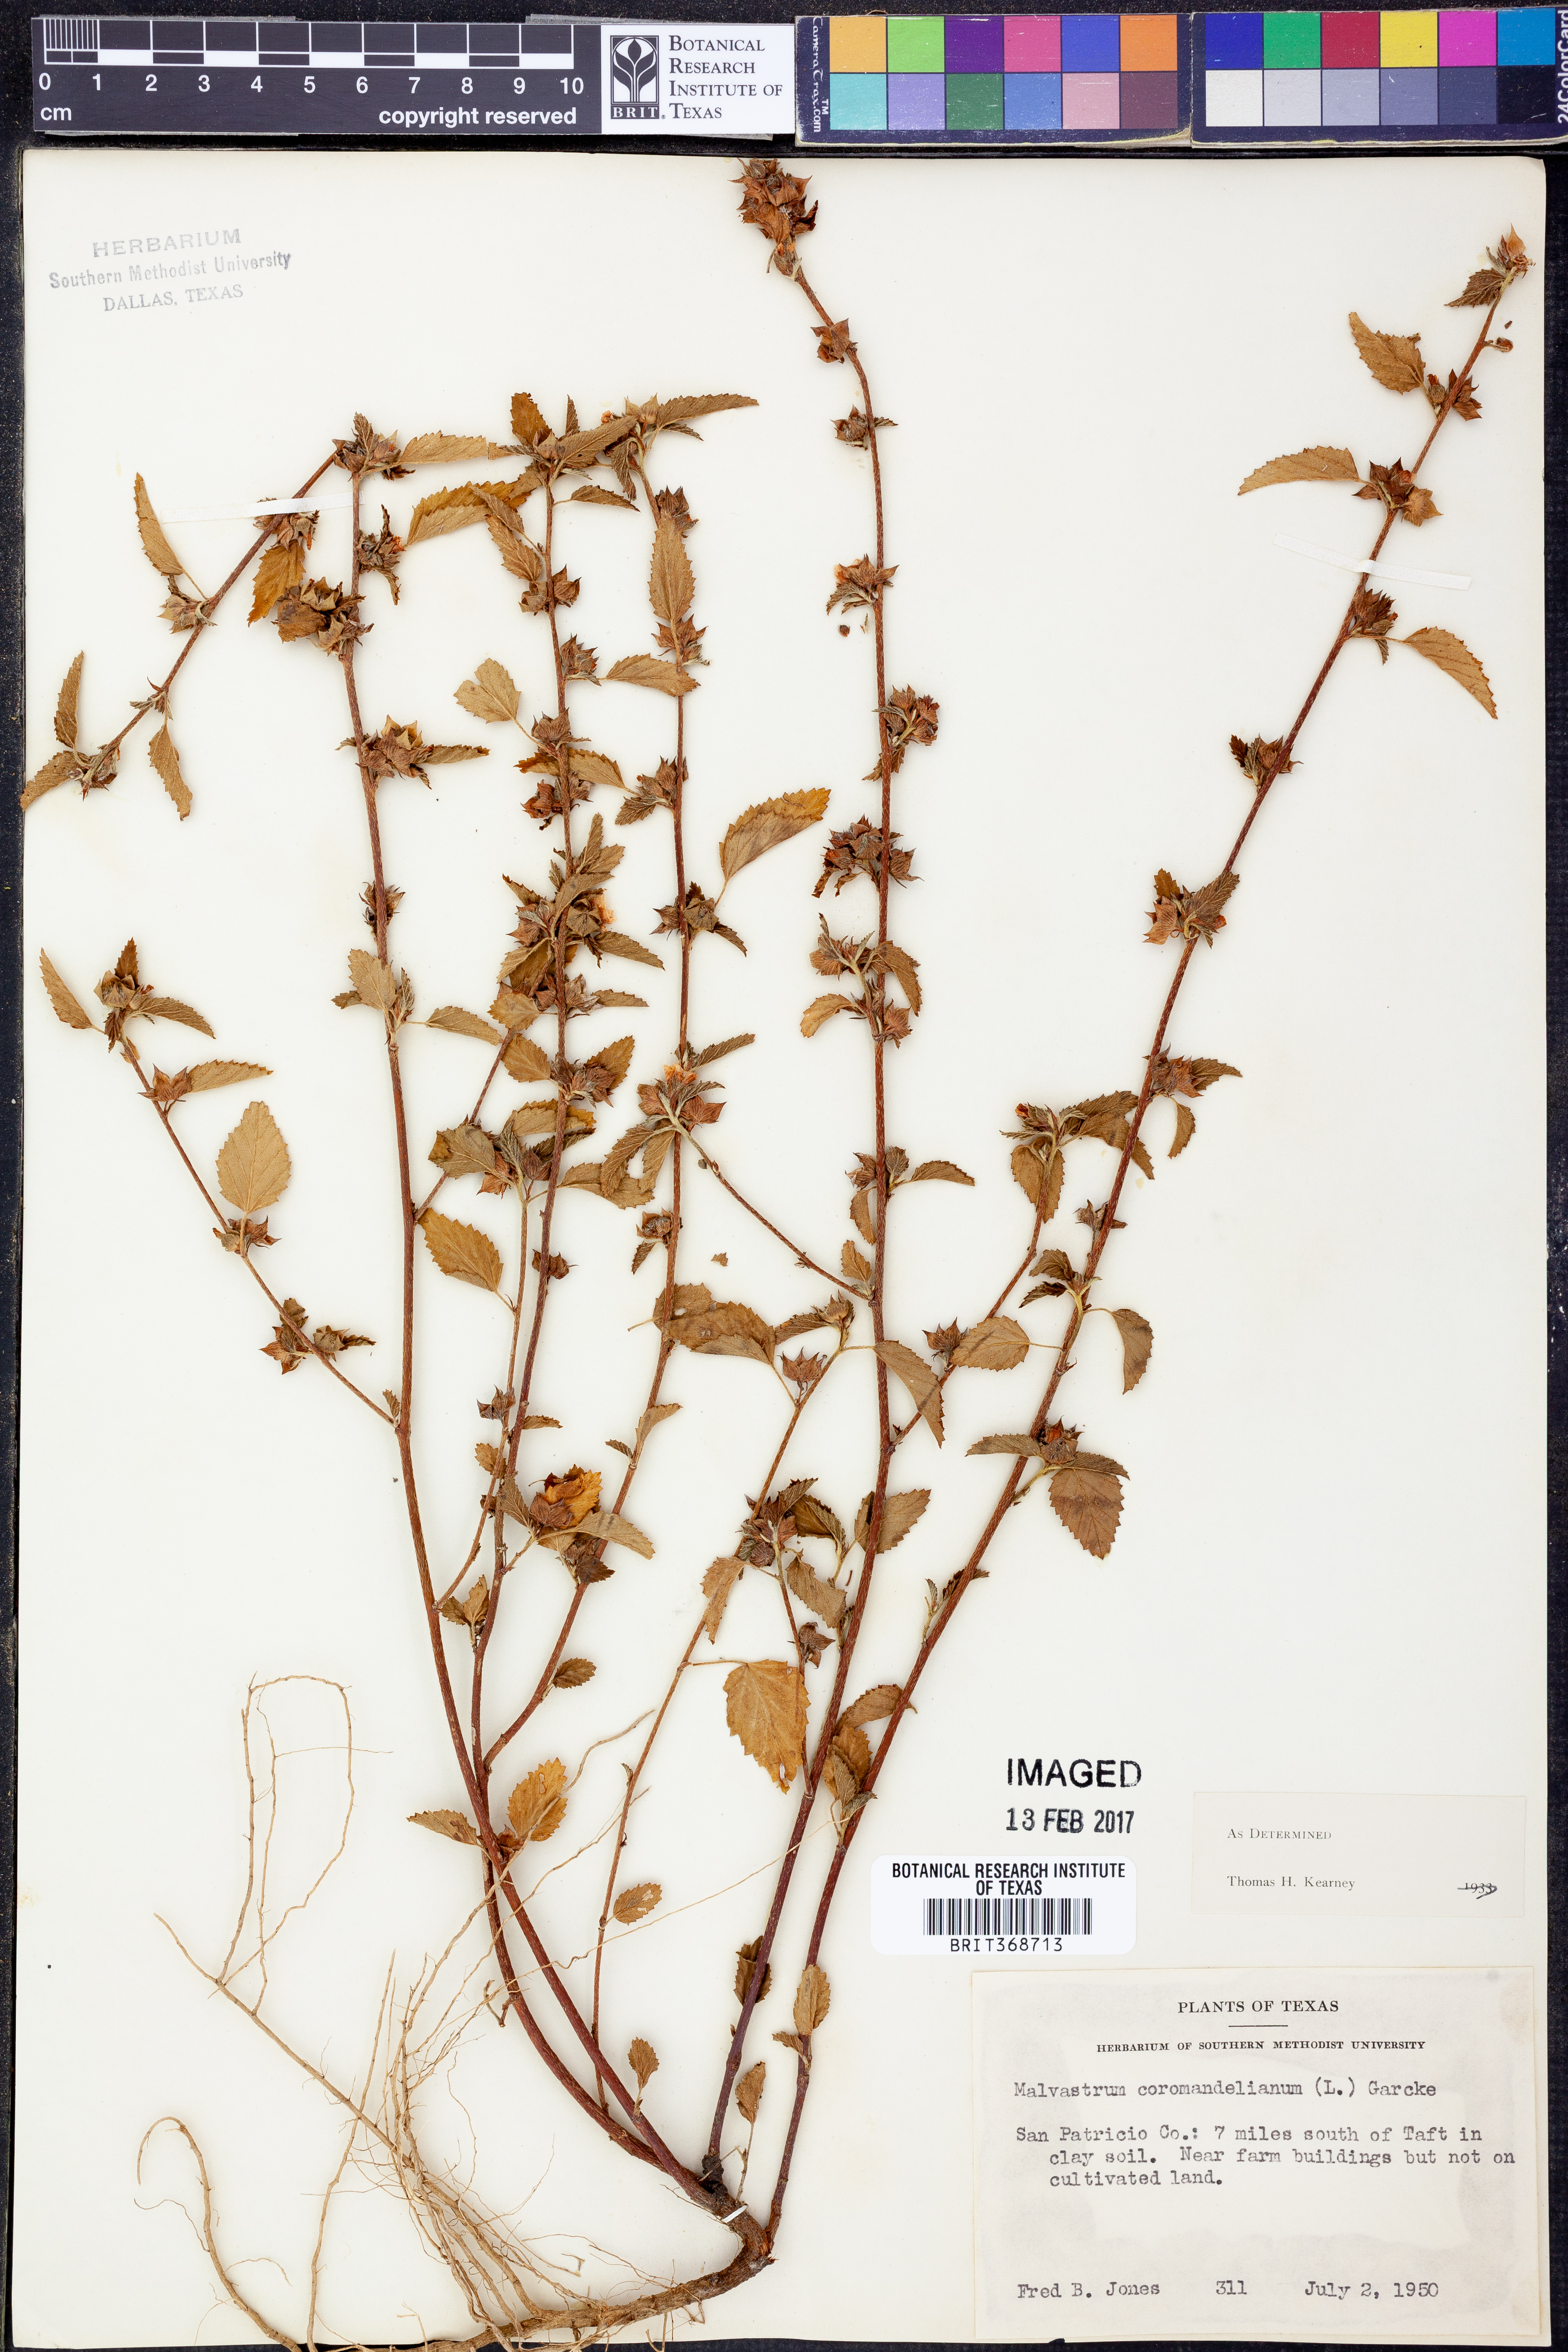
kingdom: Plantae
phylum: Tracheophyta
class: Magnoliopsida
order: Malvales
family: Malvaceae
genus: Malvastrum
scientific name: Malvastrum coromandelianum
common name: Threelobe false mallow
